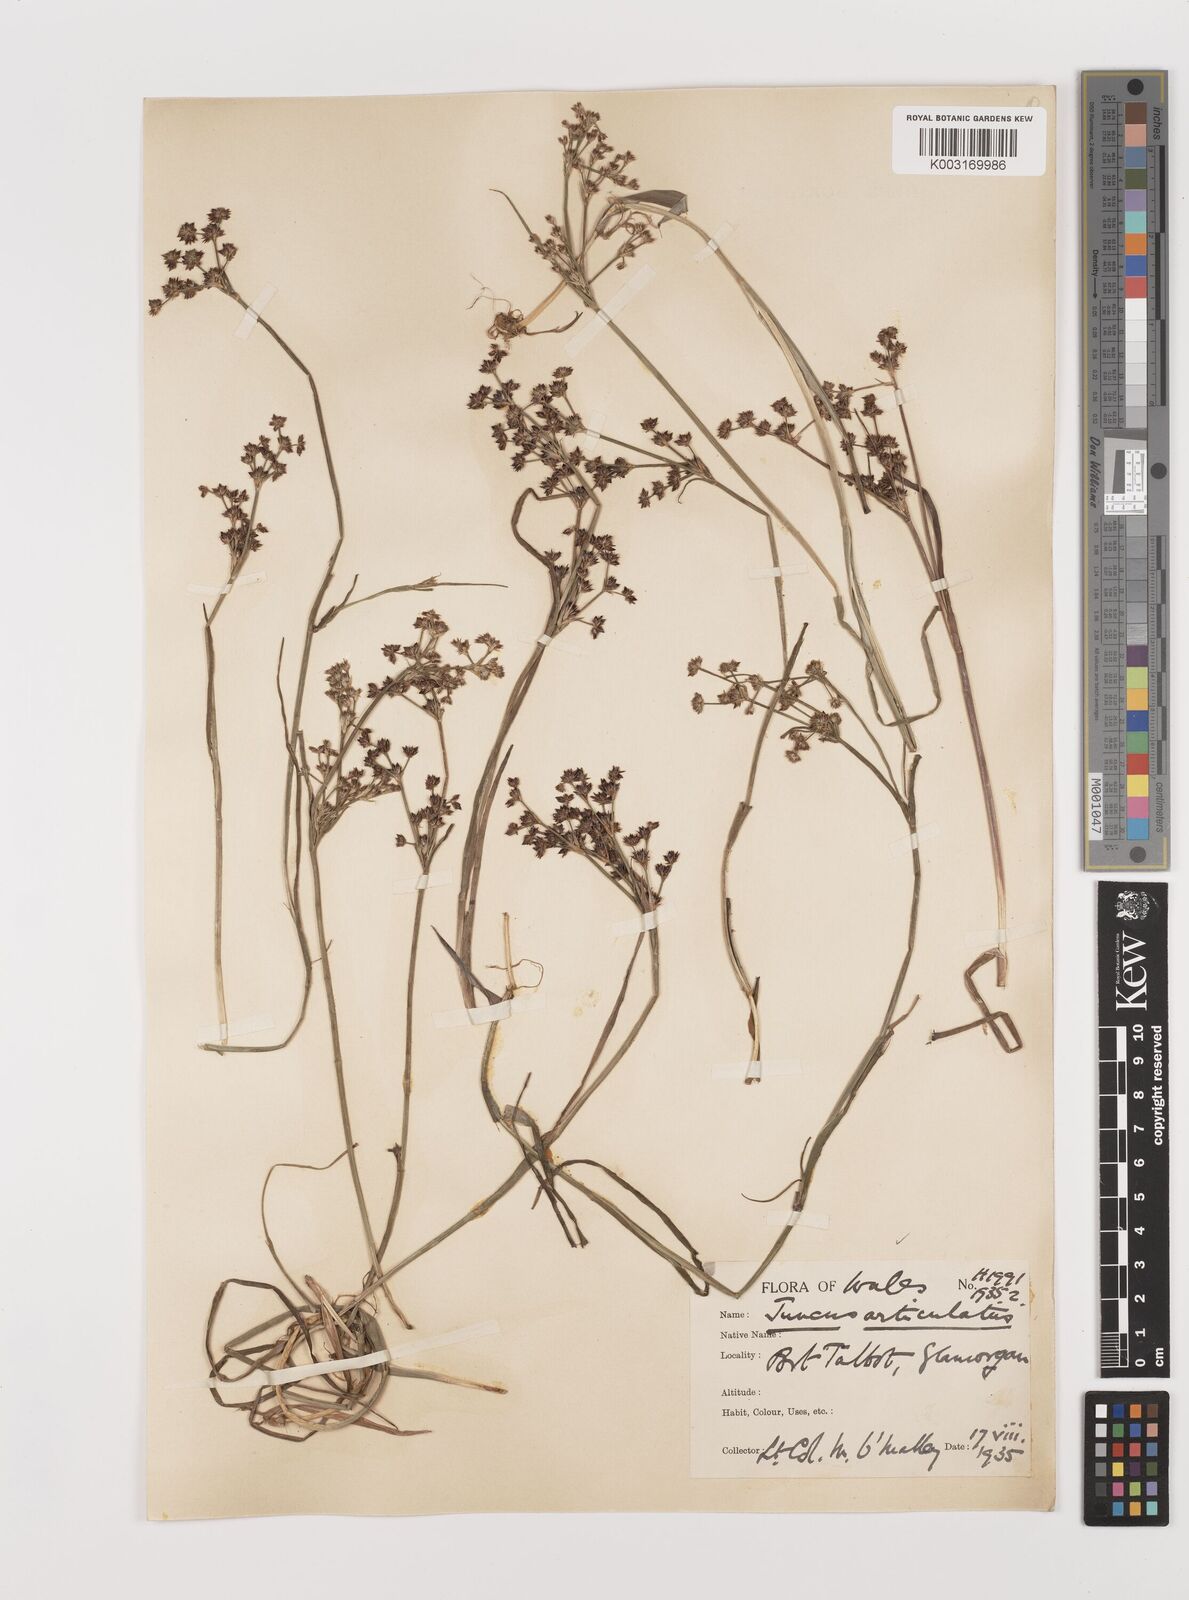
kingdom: Plantae
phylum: Tracheophyta
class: Liliopsida
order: Poales
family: Juncaceae
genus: Juncus
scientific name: Juncus articulatus
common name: Jointed rush
